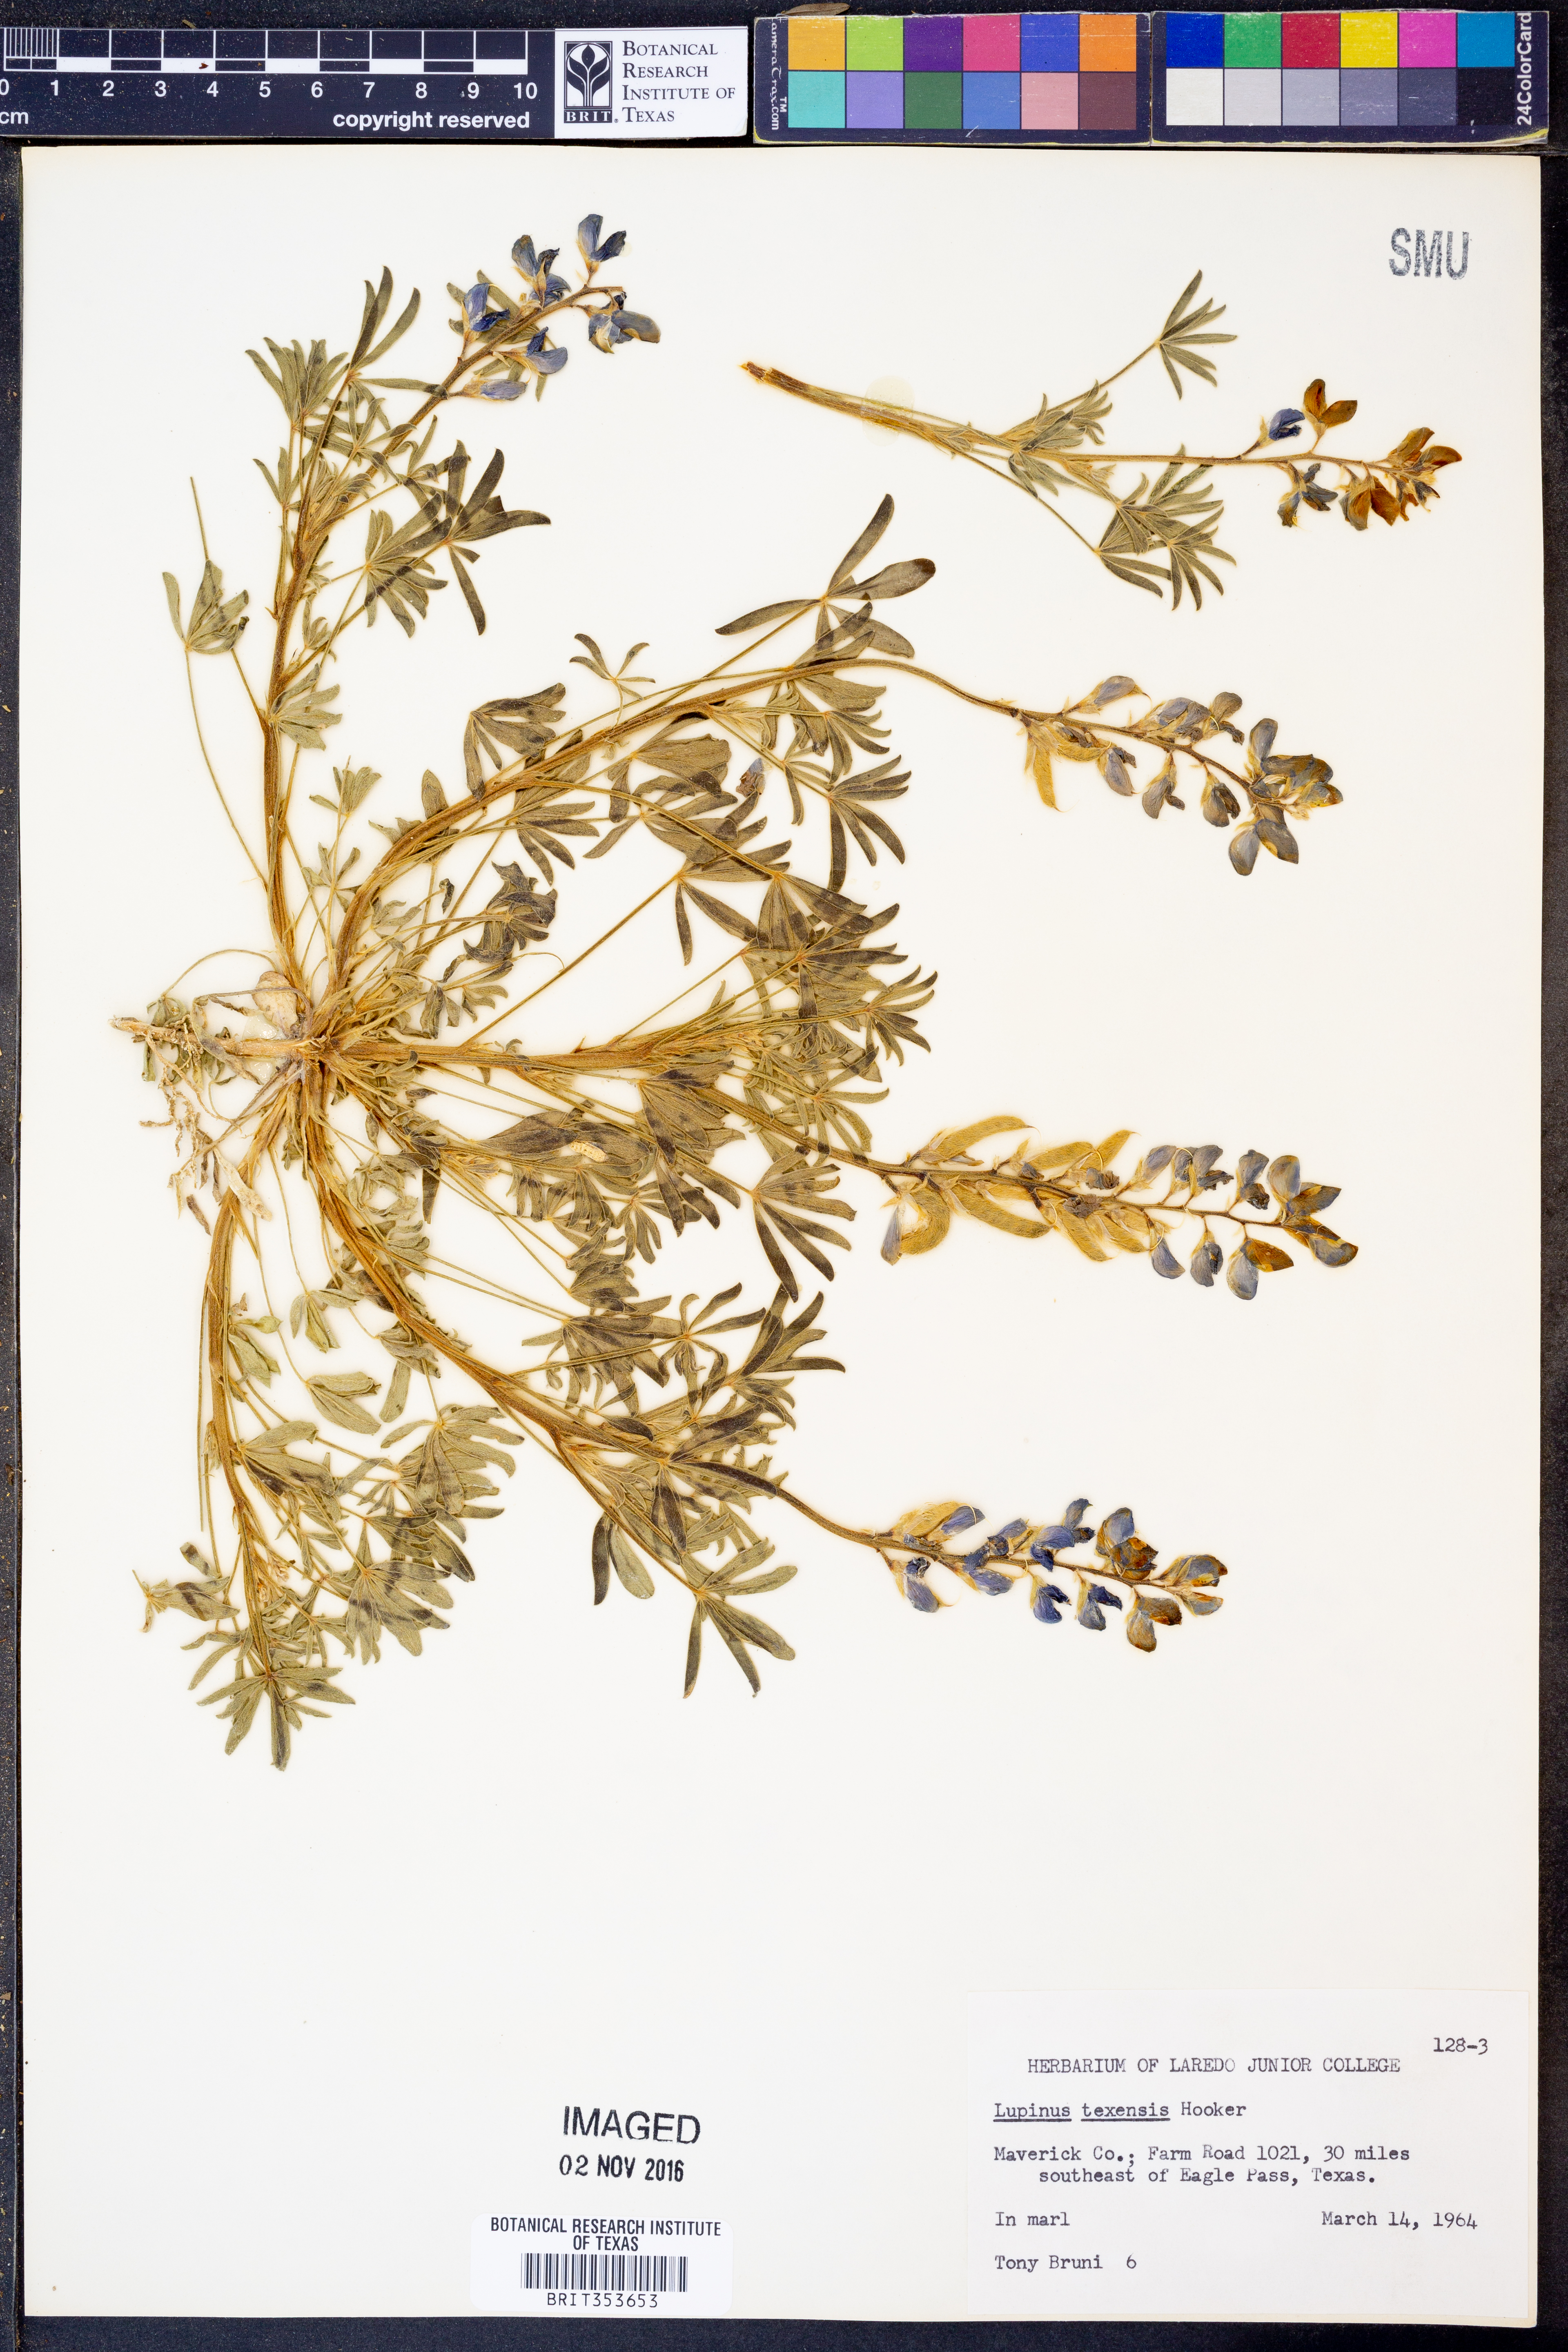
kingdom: Plantae
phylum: Tracheophyta
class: Magnoliopsida
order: Fabales
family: Fabaceae
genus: Lupinus
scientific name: Lupinus texensis
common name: Texas bluebonnet
